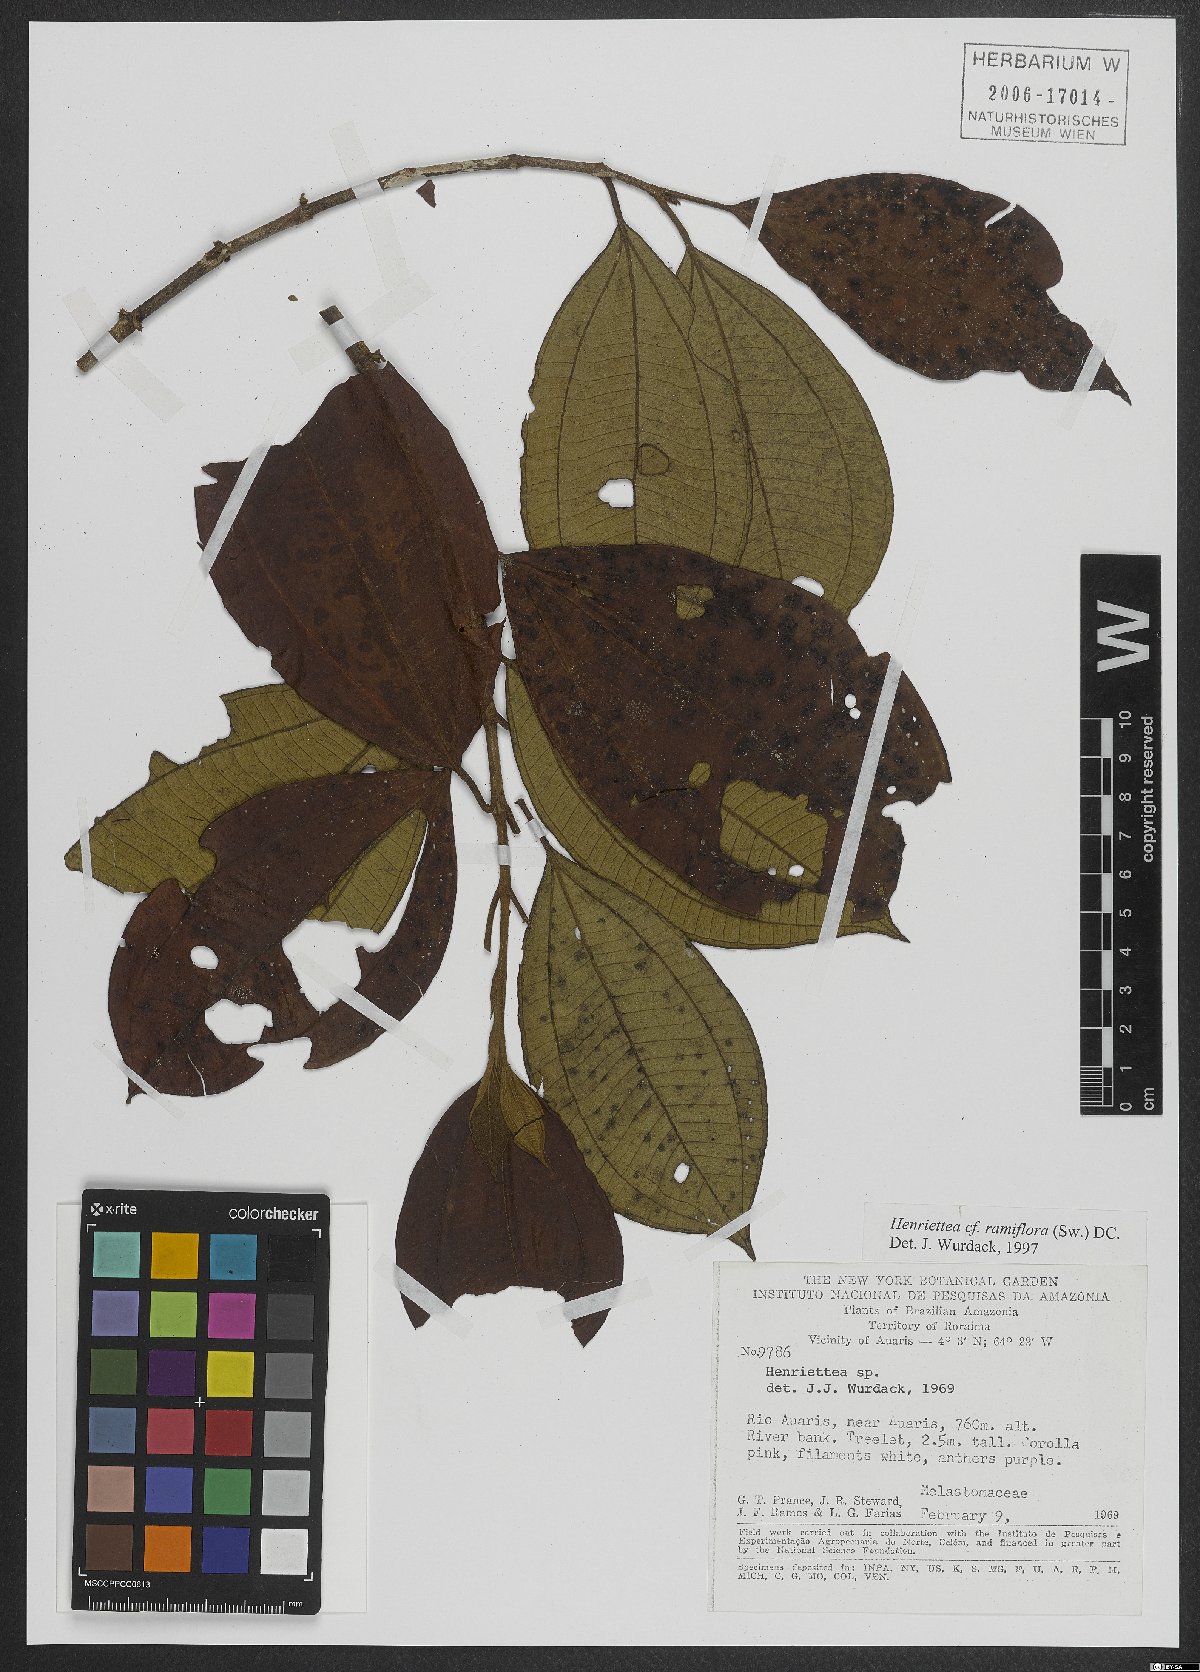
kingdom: Plantae
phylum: Tracheophyta
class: Magnoliopsida
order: Myrtales
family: Melastomataceae
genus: Henriettea
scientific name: Henriettea spruceana
